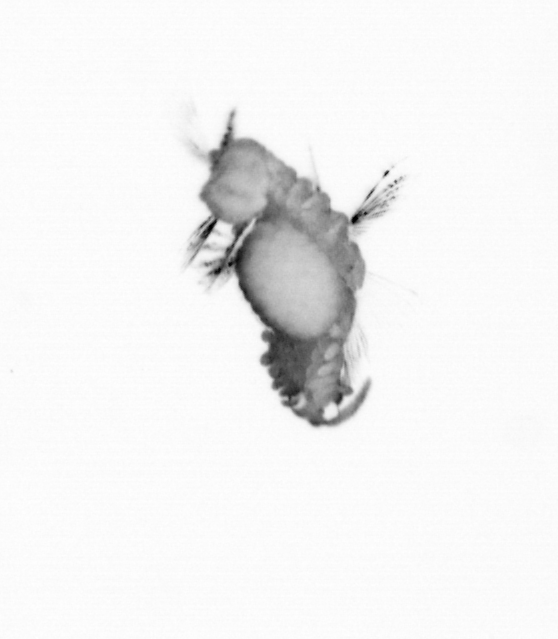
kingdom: Animalia
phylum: Annelida
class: Polychaeta
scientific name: Polychaeta
